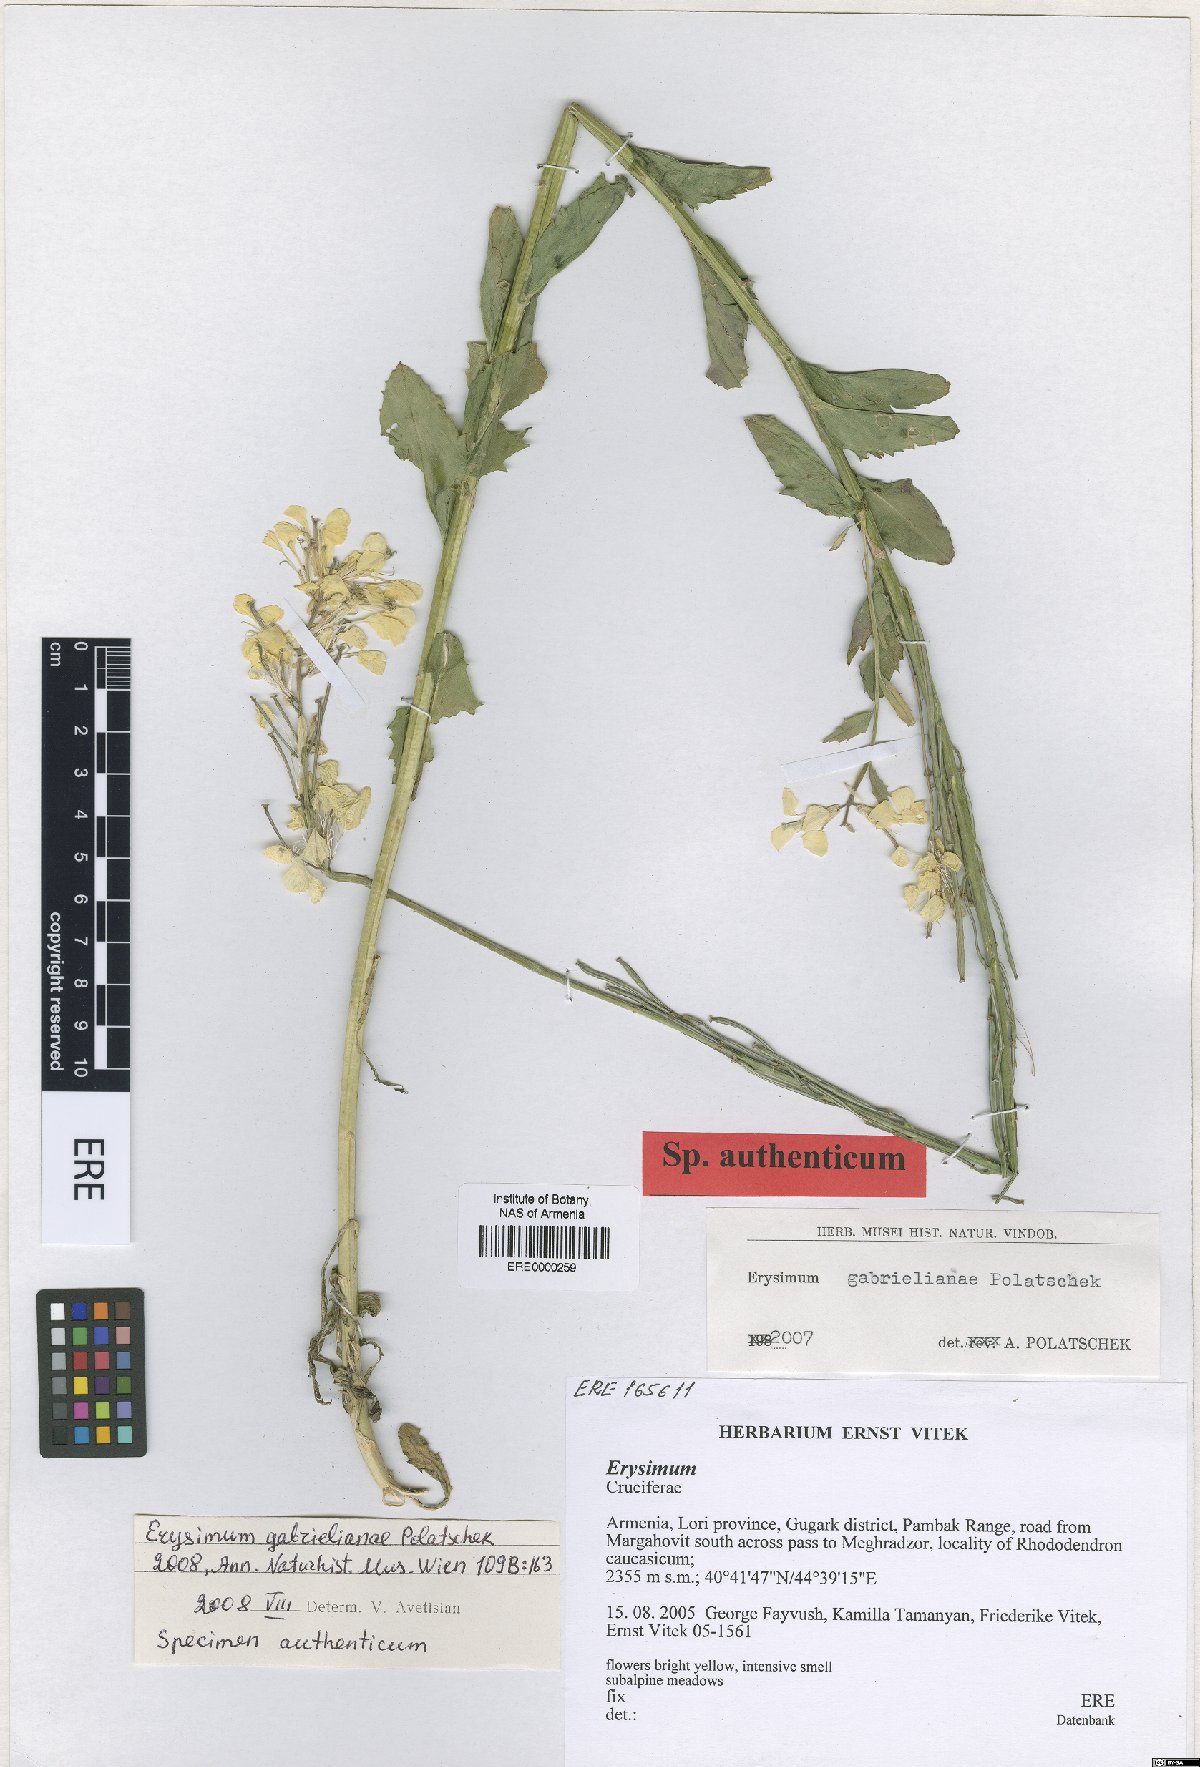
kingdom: Plantae
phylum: Tracheophyta
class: Magnoliopsida
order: Brassicales
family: Brassicaceae
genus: Erysimum
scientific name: Erysimum ibericum
